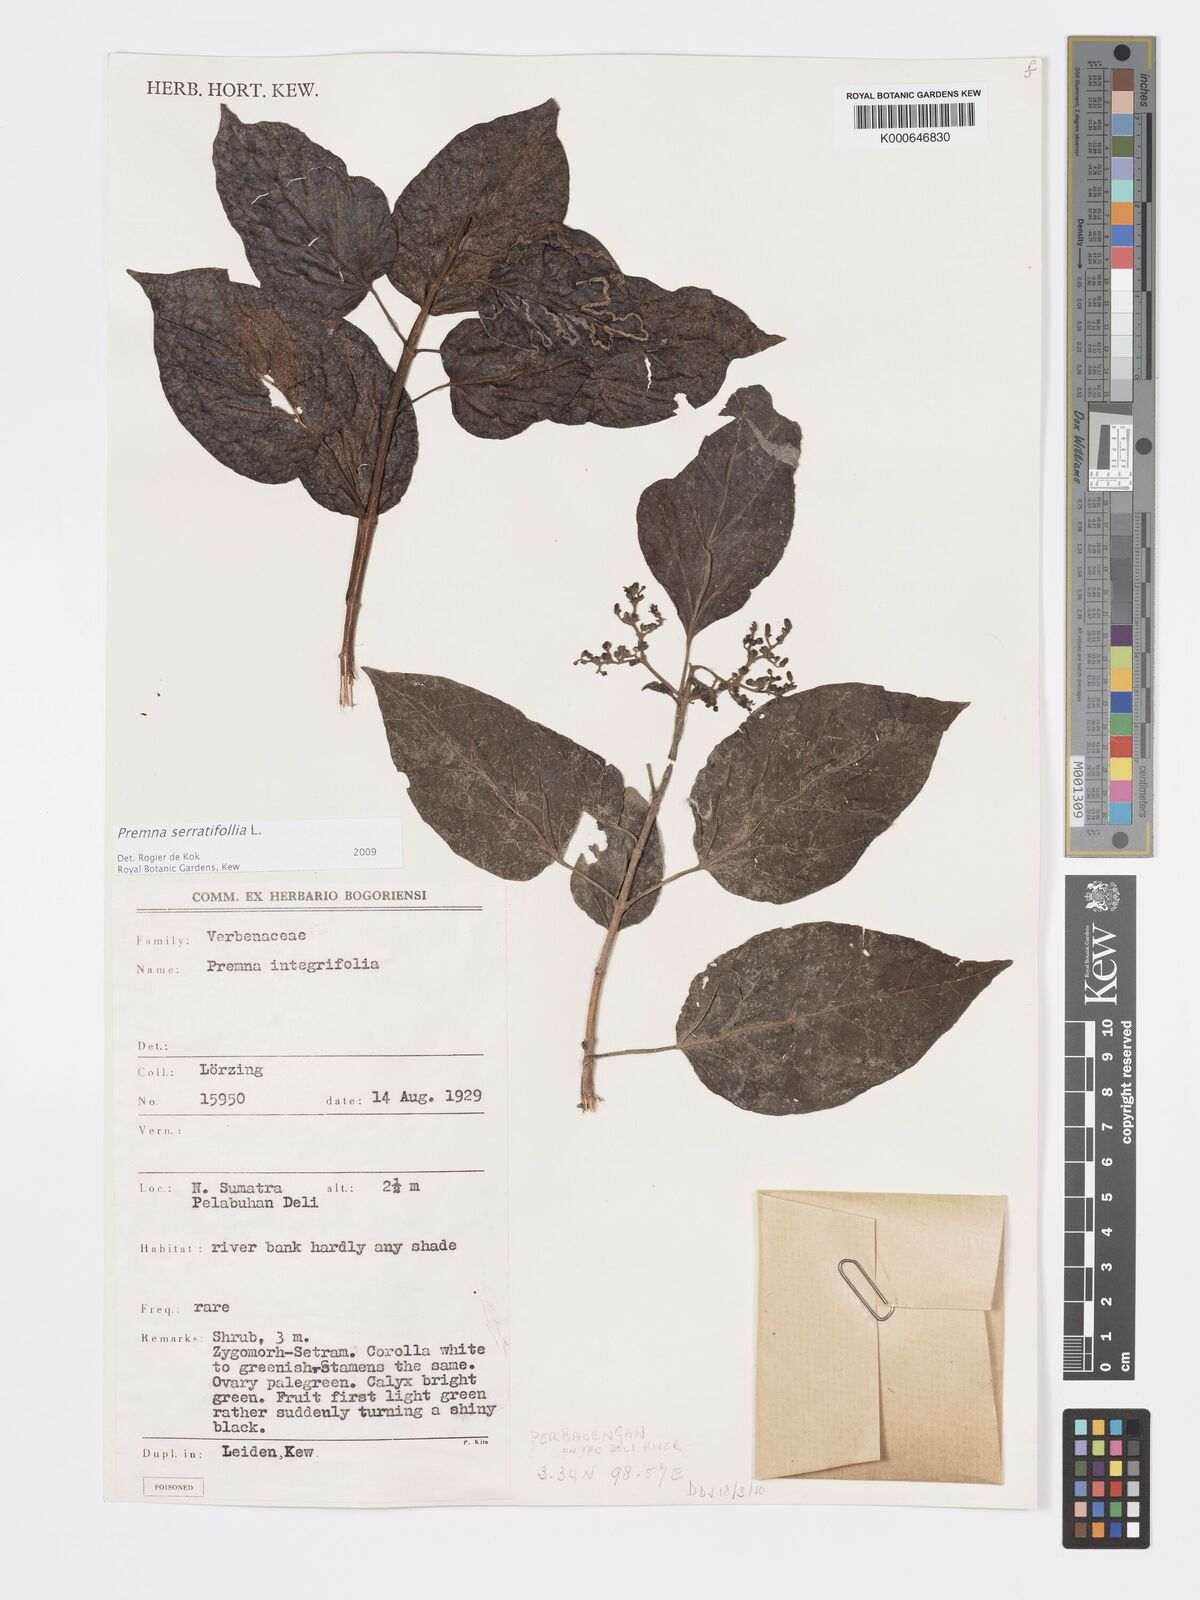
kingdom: Plantae
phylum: Tracheophyta
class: Magnoliopsida
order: Lamiales
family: Lamiaceae
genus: Premna
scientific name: Premna serratifolia
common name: Bastard guelder
